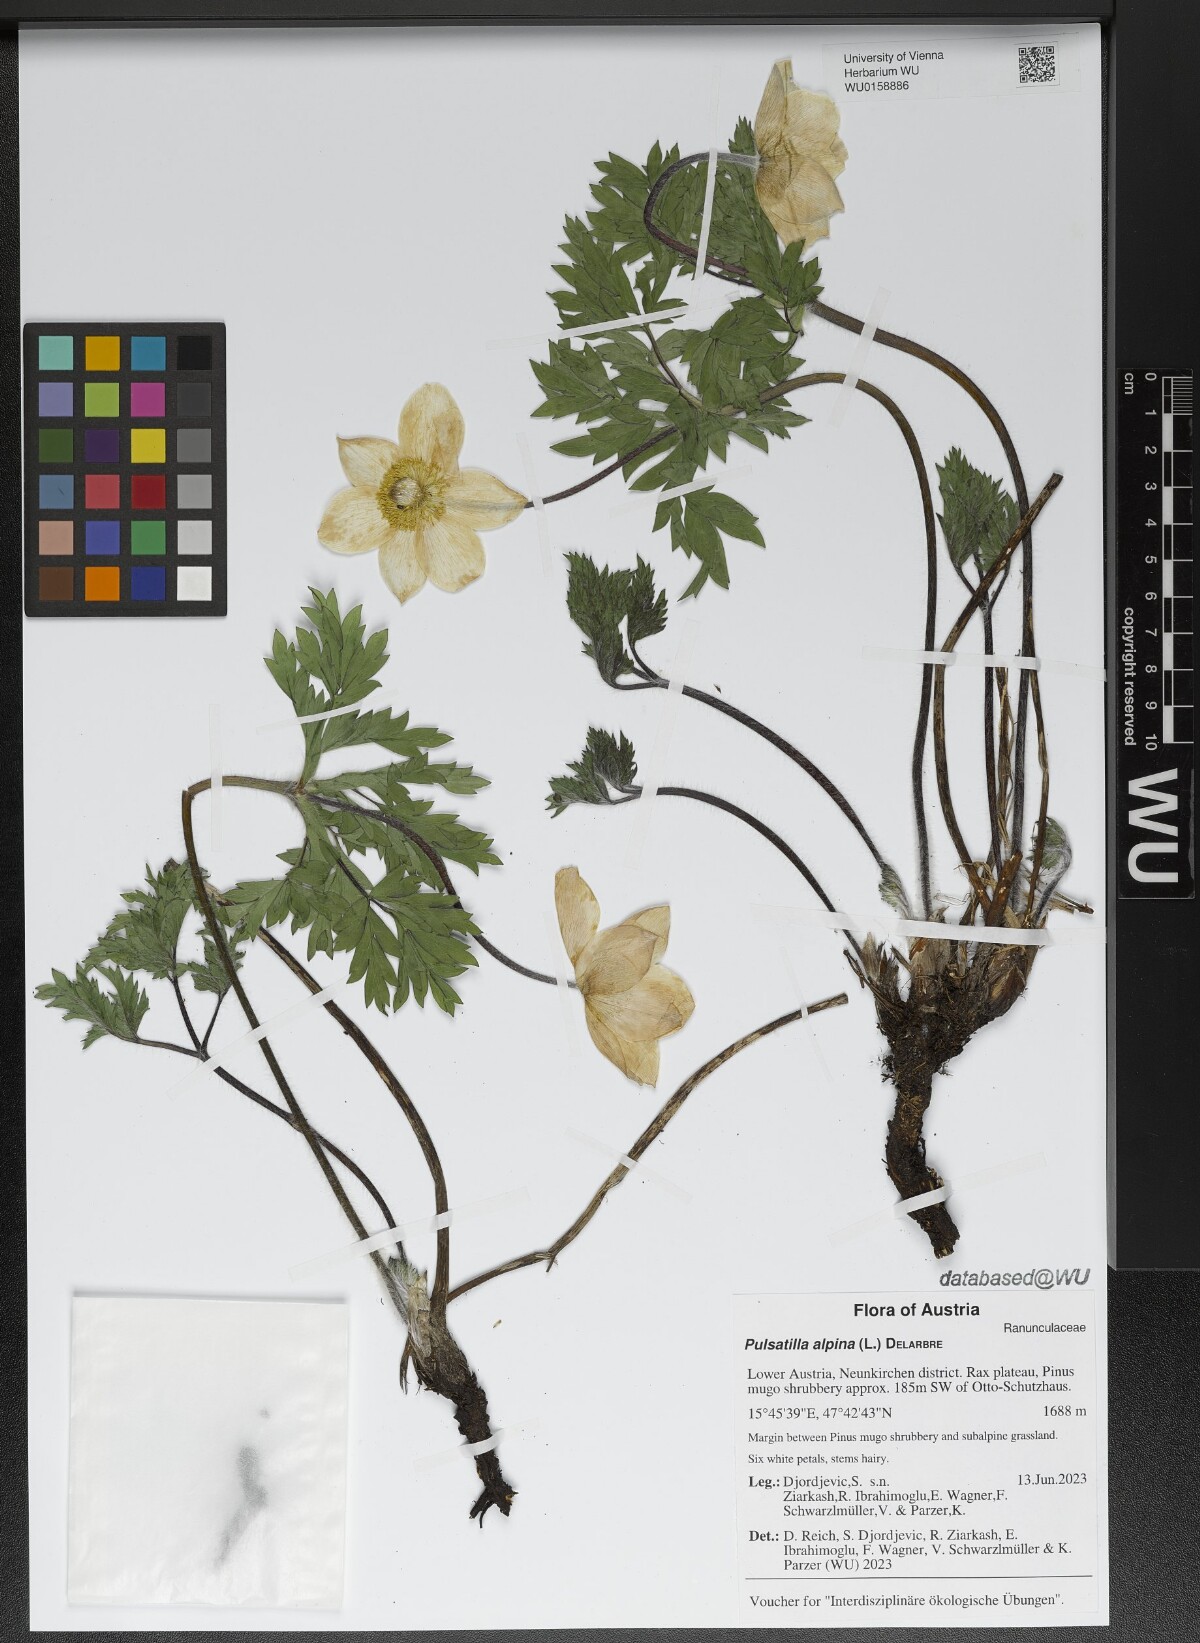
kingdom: Plantae
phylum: Tracheophyta
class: Magnoliopsida
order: Ranunculales
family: Ranunculaceae
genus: Pulsatilla
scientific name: Pulsatilla alpina
